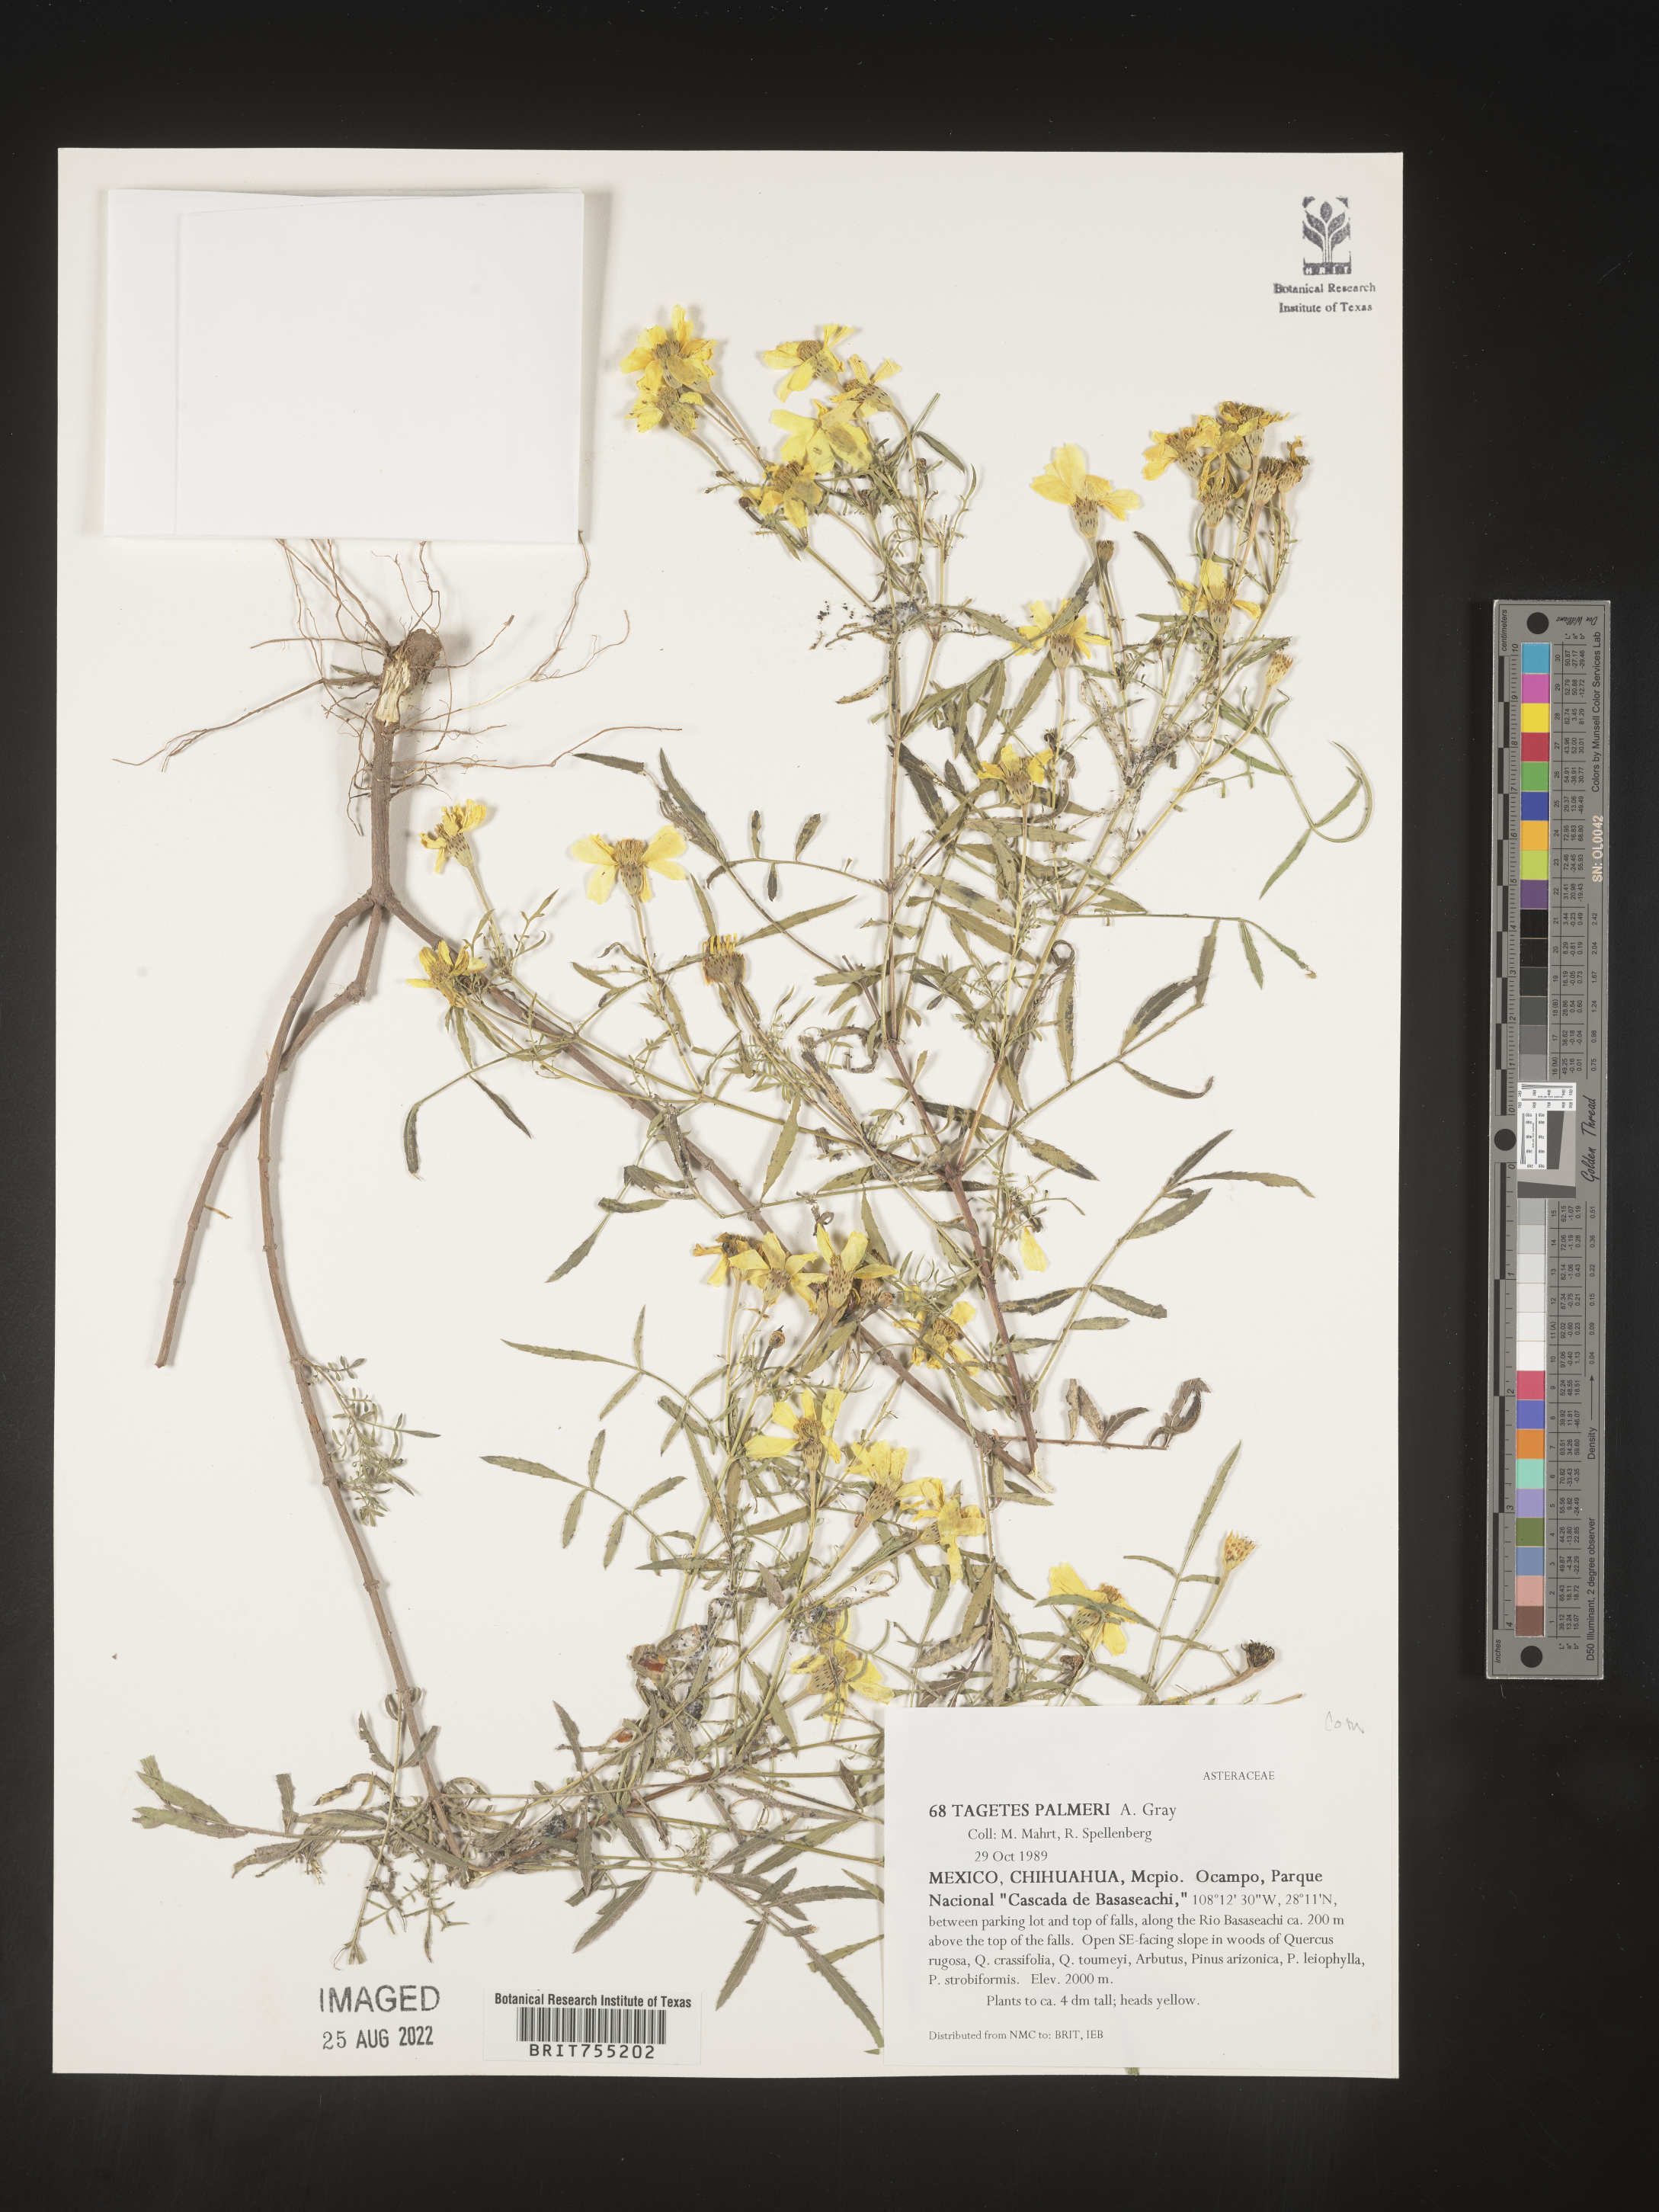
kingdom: Plantae
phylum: Tracheophyta
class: Magnoliopsida
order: Asterales
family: Asteraceae
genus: Tagetes
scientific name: Tagetes
